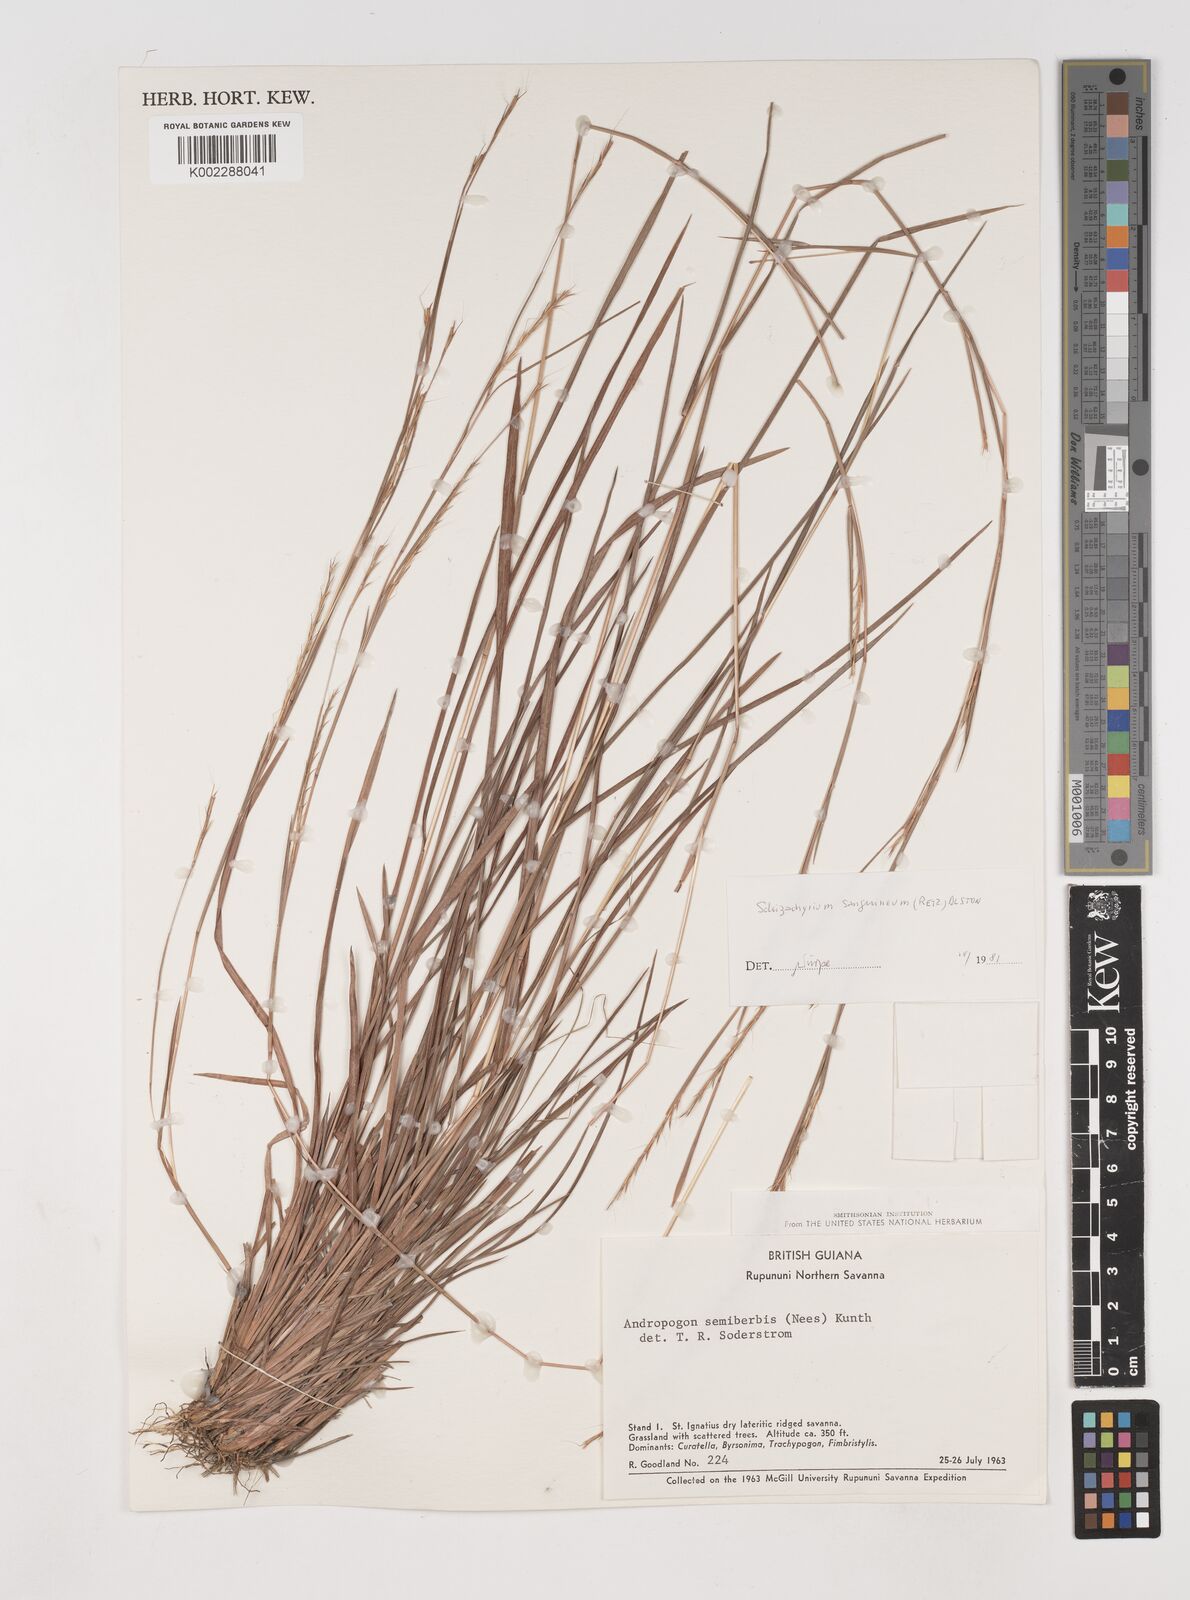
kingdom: Plantae
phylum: Tracheophyta
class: Liliopsida
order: Poales
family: Poaceae
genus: Schizachyrium
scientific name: Schizachyrium sanguineum
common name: Crimson bluestem
